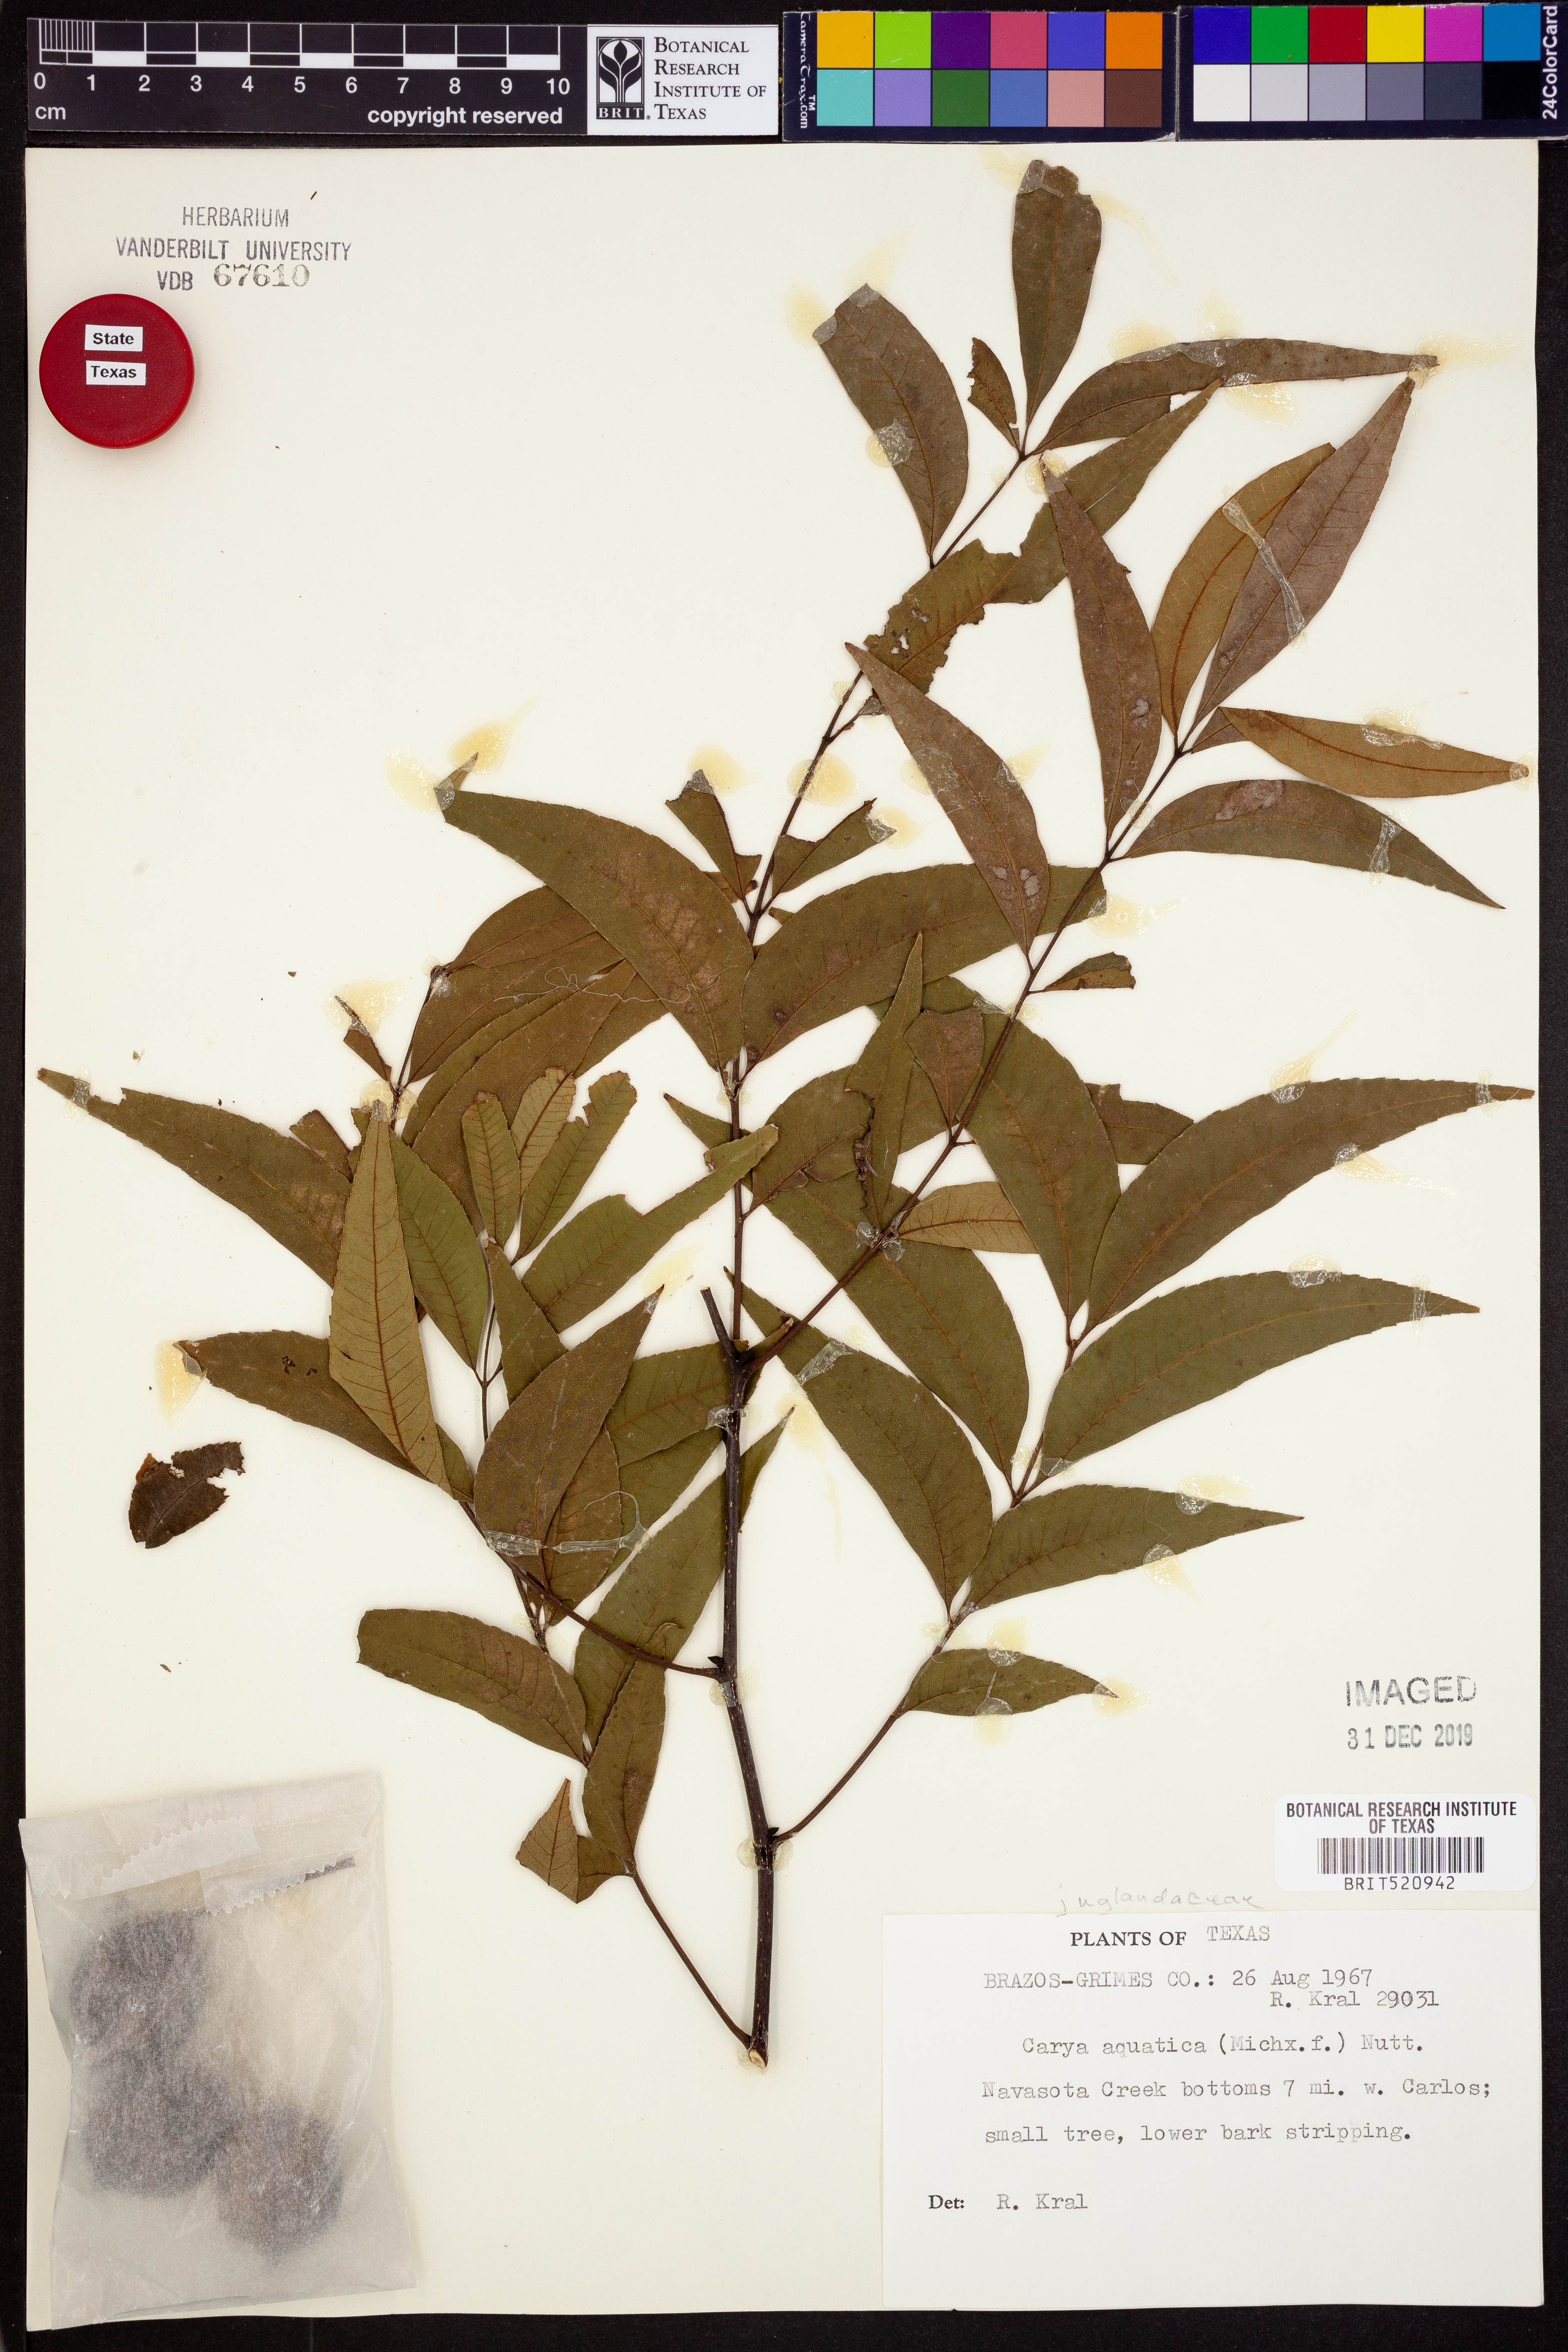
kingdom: Plantae
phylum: Tracheophyta
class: Magnoliopsida
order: Fagales
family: Juglandaceae
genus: Carya
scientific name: Carya aquatica
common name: Water hickory
